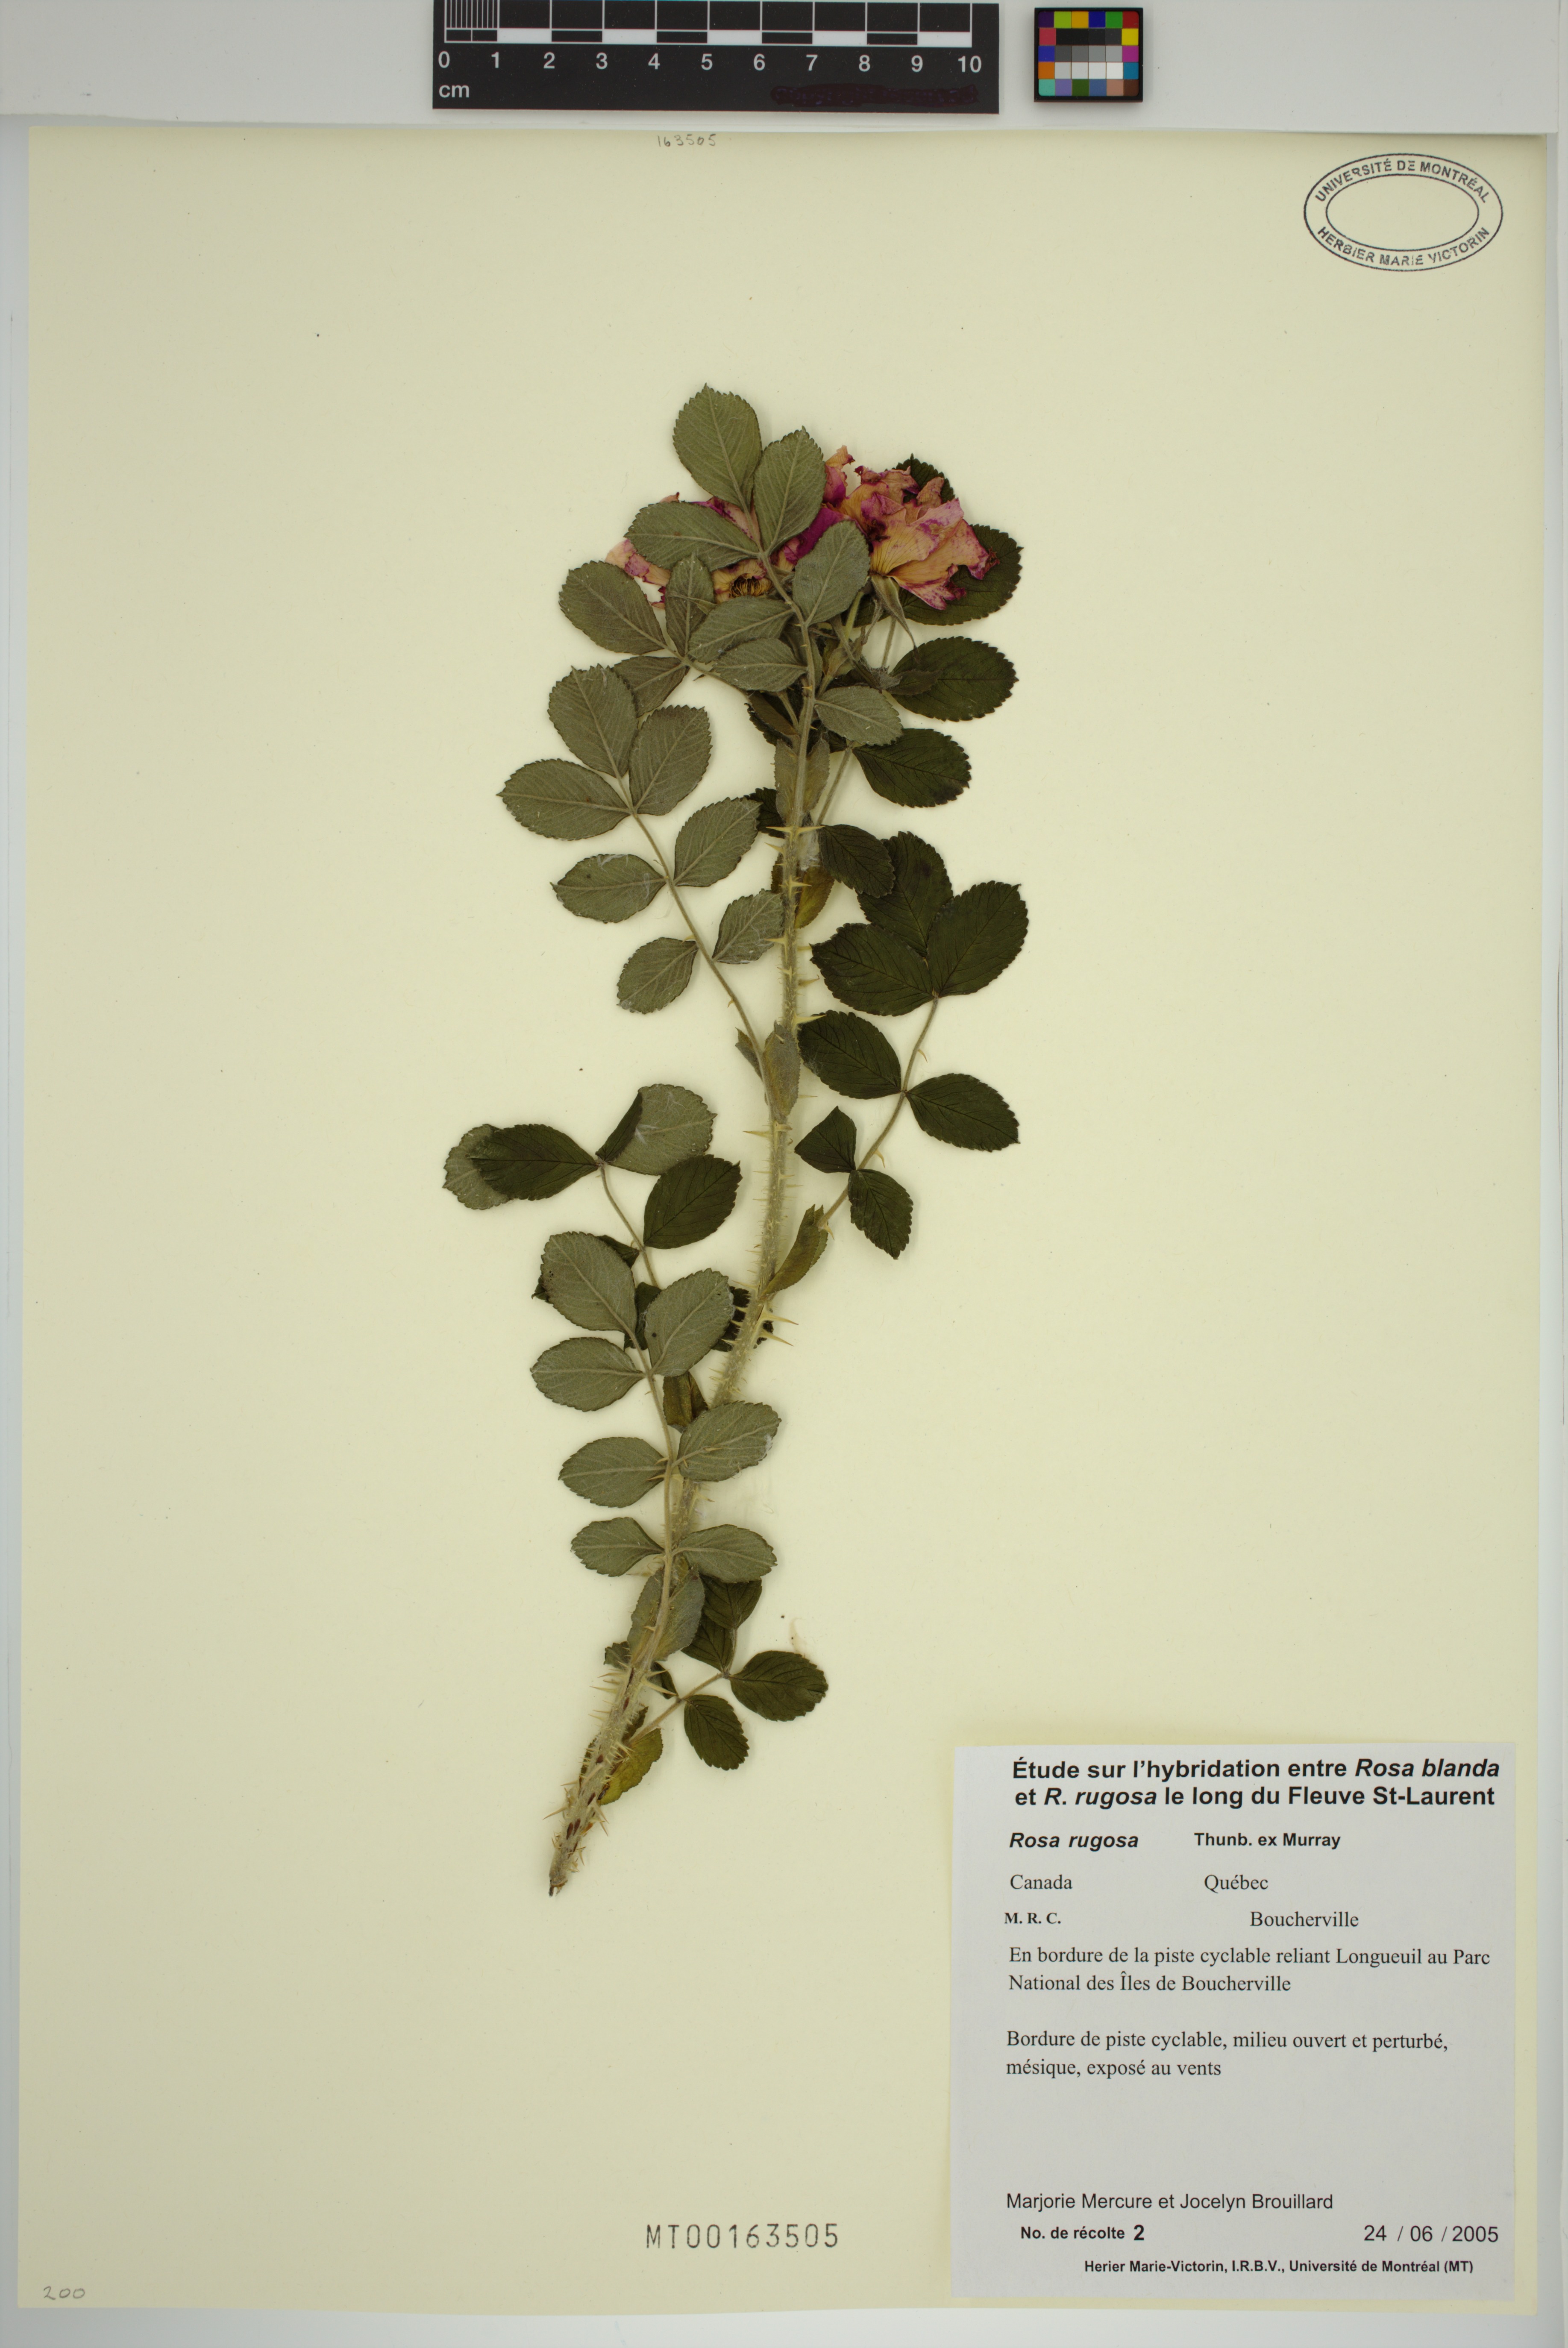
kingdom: Plantae
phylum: Tracheophyta
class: Magnoliopsida
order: Rosales
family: Rosaceae
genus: Rosa
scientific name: Rosa rugosa
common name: Japanese rose
